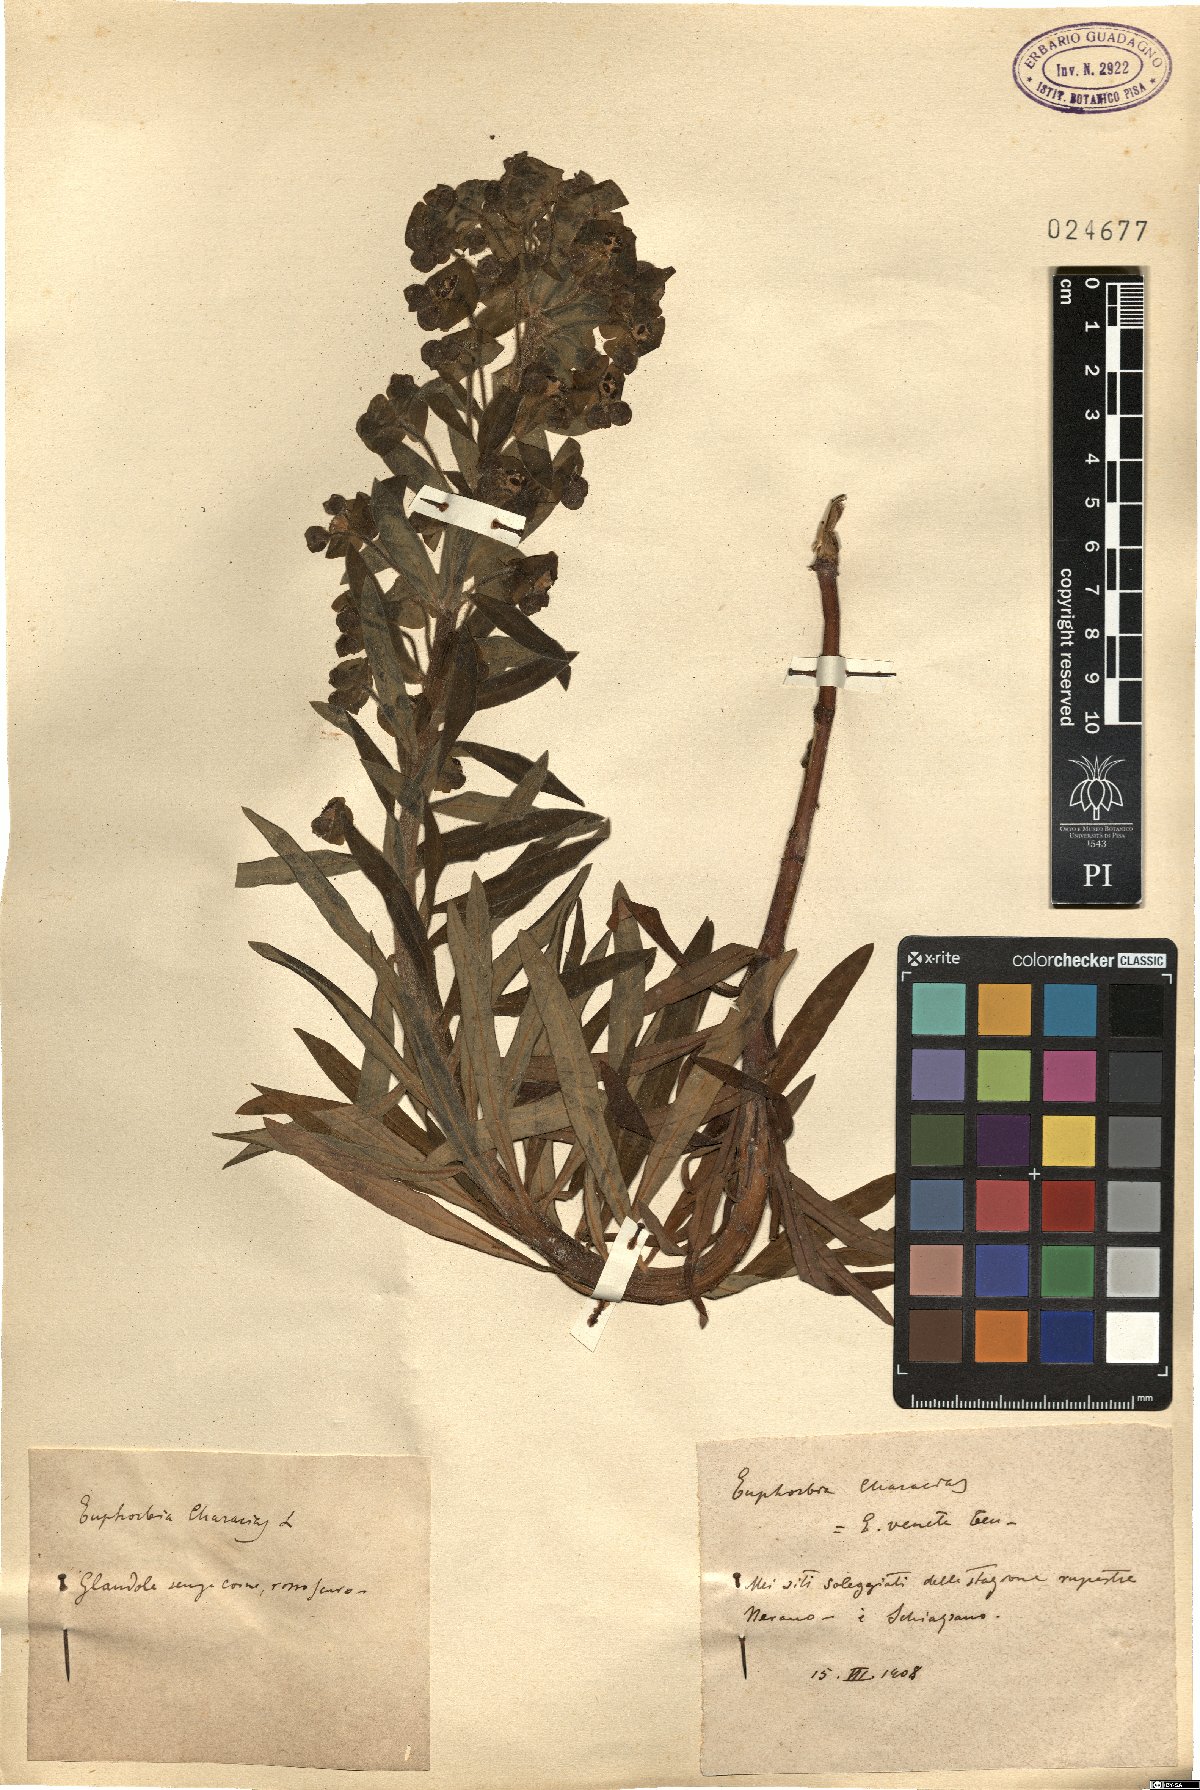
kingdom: Plantae
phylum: Tracheophyta
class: Magnoliopsida
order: Malpighiales
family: Euphorbiaceae
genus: Euphorbia
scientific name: Euphorbia characias
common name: Mediterranean spurge
